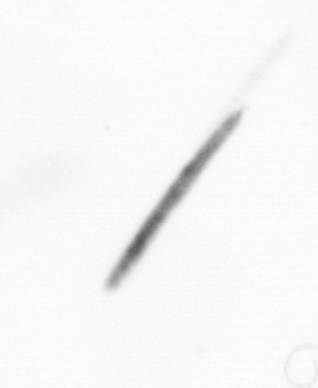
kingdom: Chromista
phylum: Ochrophyta
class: Bacillariophyceae
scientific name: Bacillariophyceae
